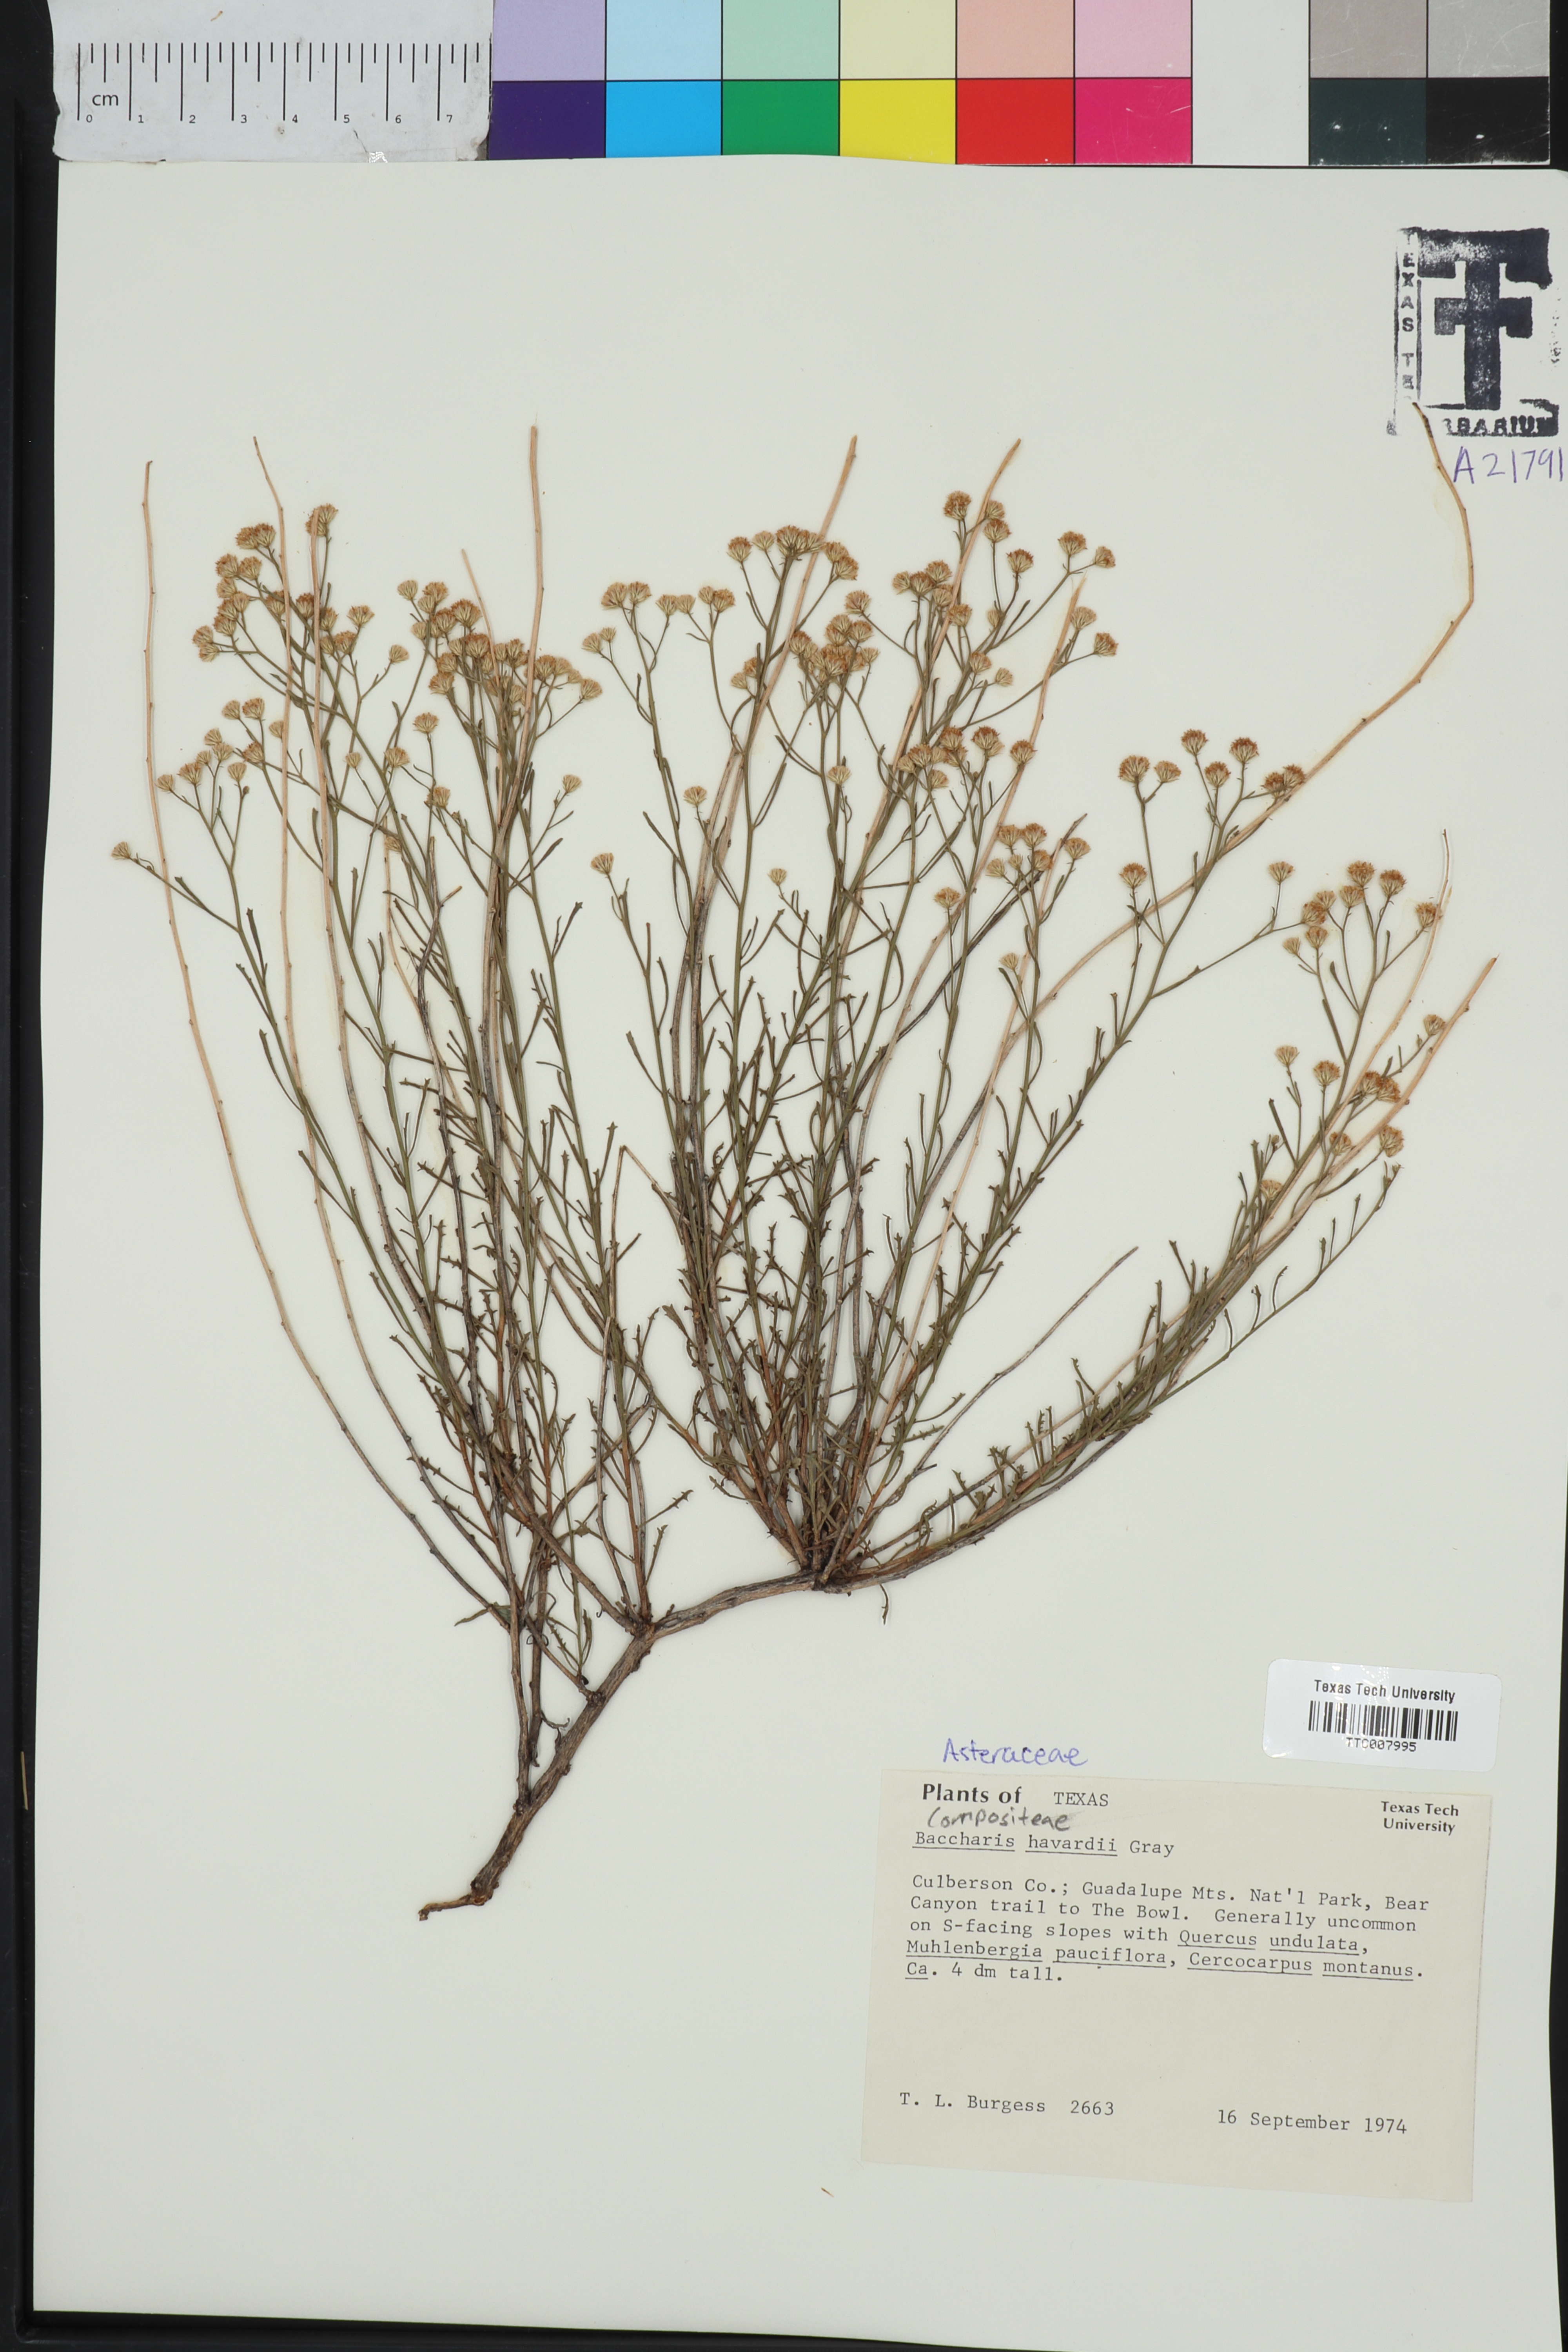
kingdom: Plantae
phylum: Tracheophyta
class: Magnoliopsida
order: Asterales
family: Asteraceae
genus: Baccharis
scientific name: Baccharis havardii
